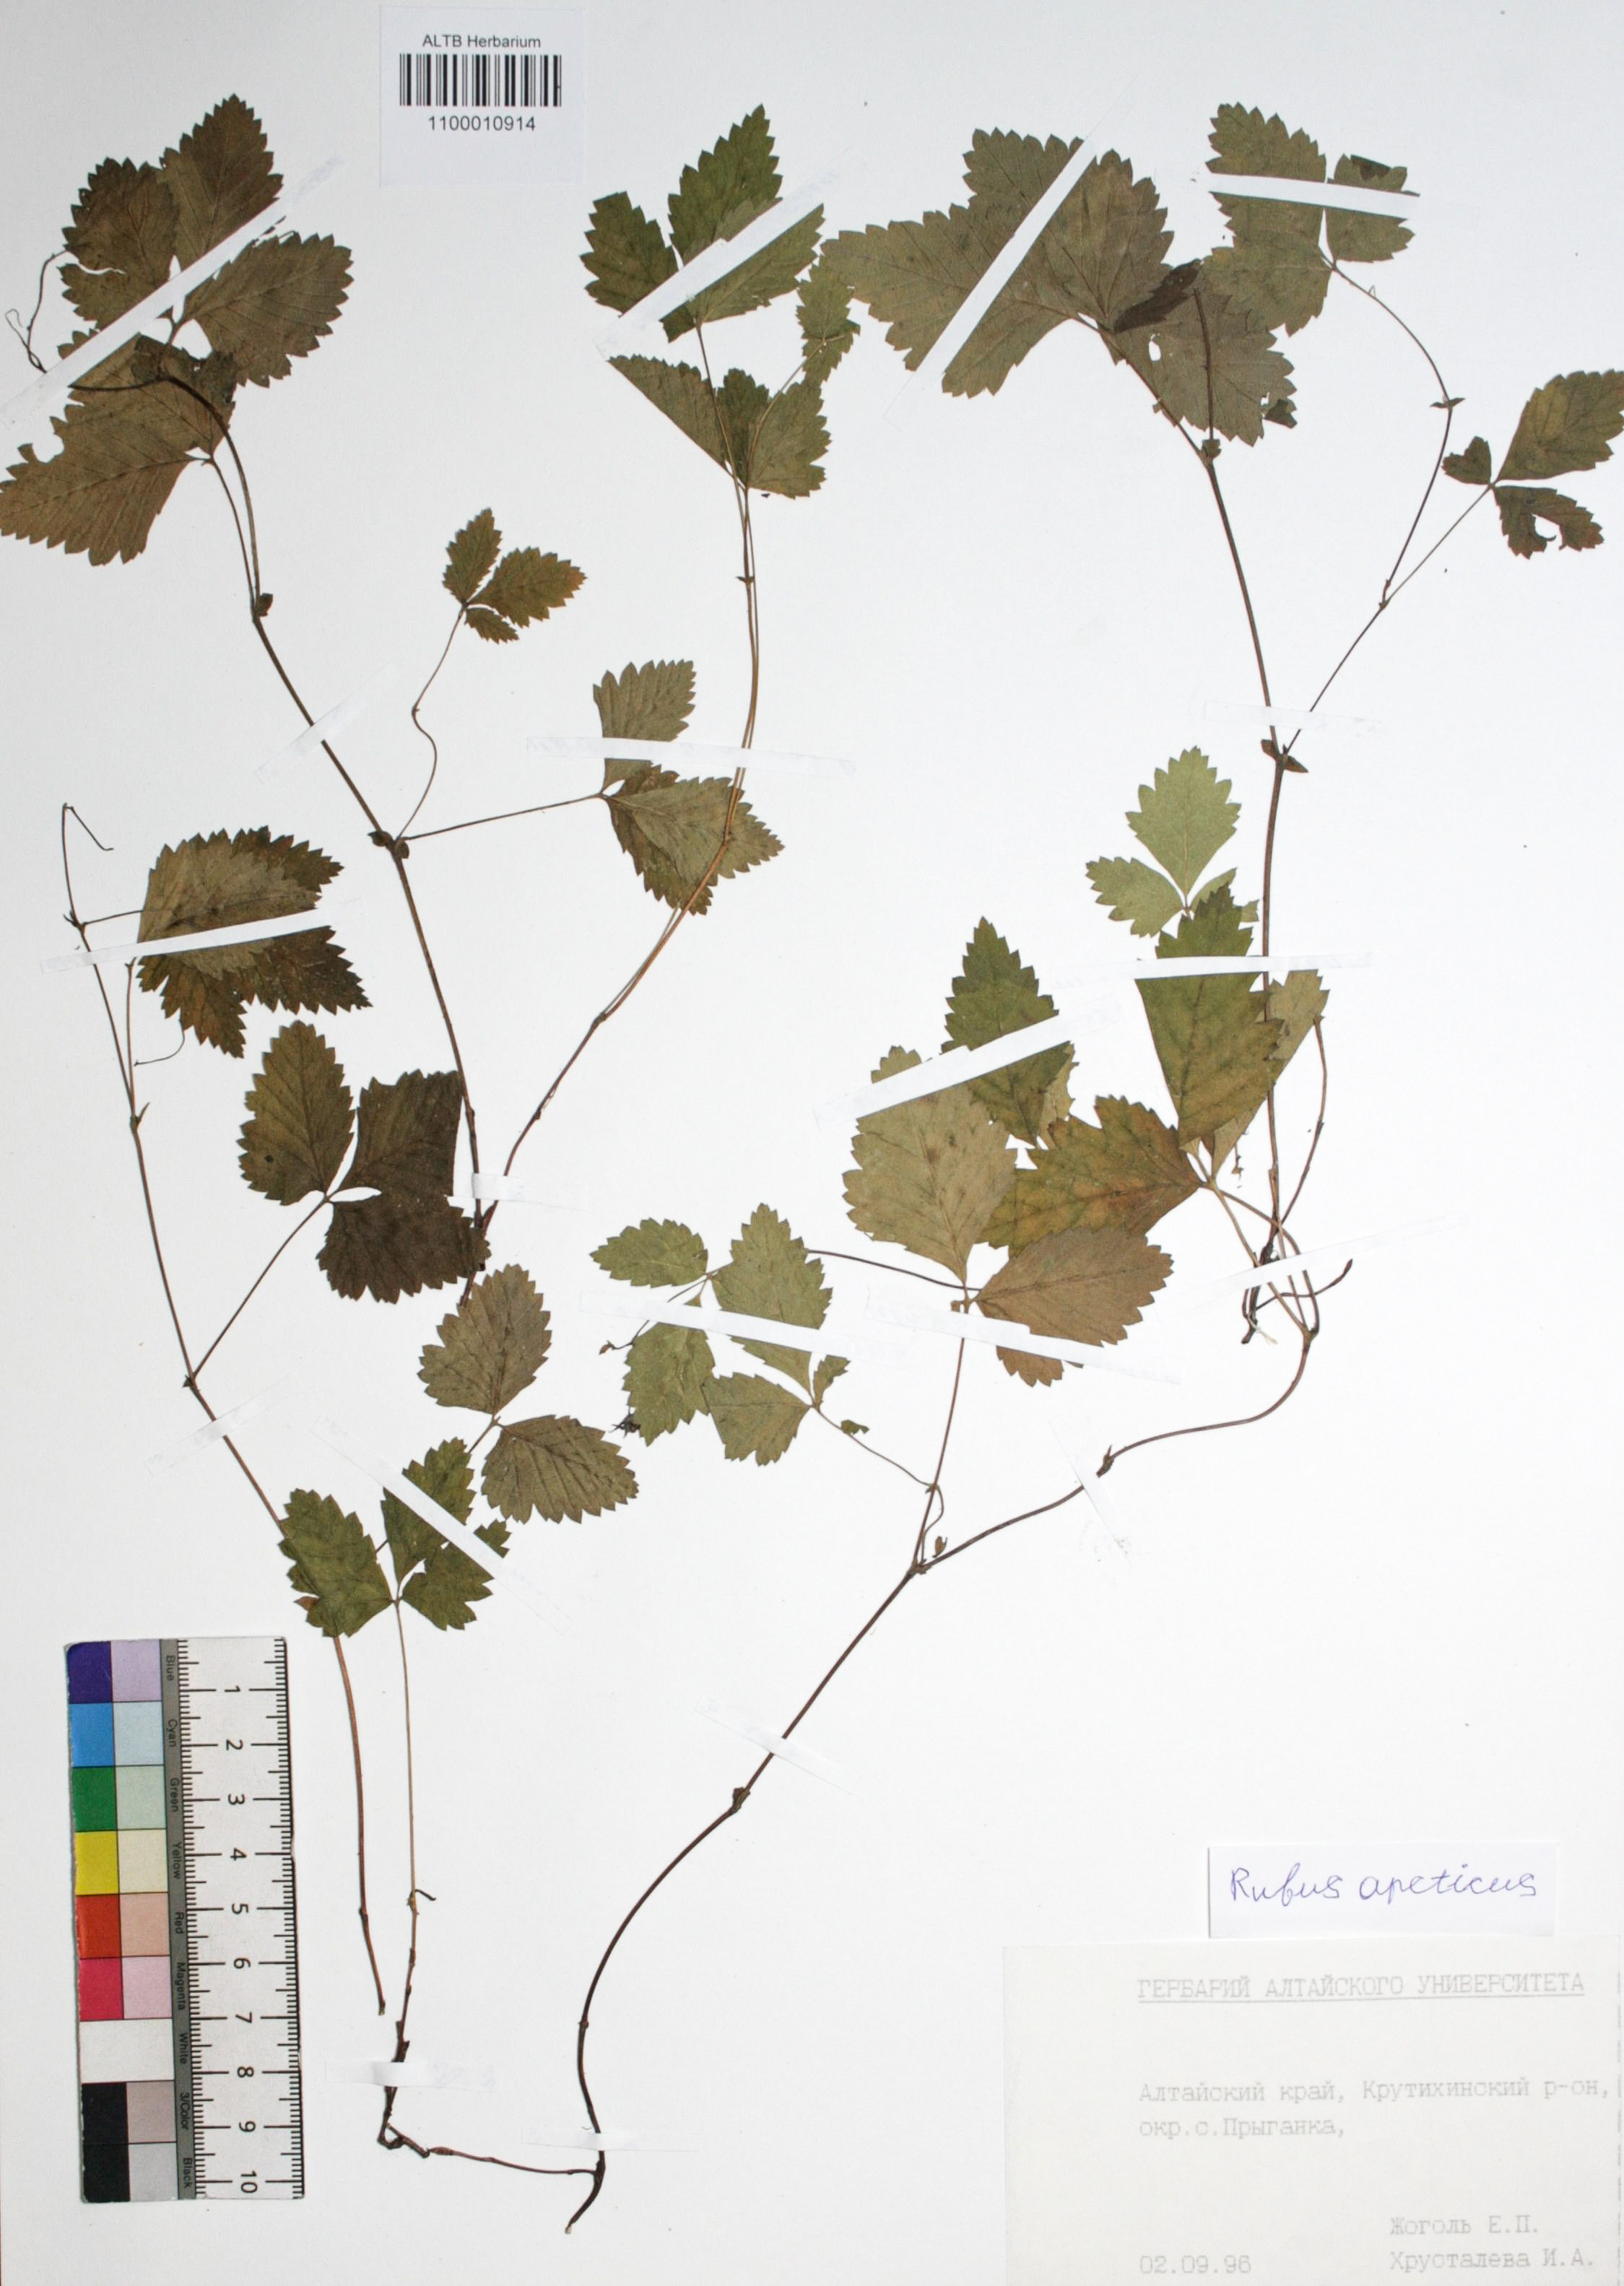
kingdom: Plantae
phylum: Tracheophyta
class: Magnoliopsida
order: Rosales
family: Rosaceae
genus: Rubus
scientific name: Rubus arcticus
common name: Arctic bramble
